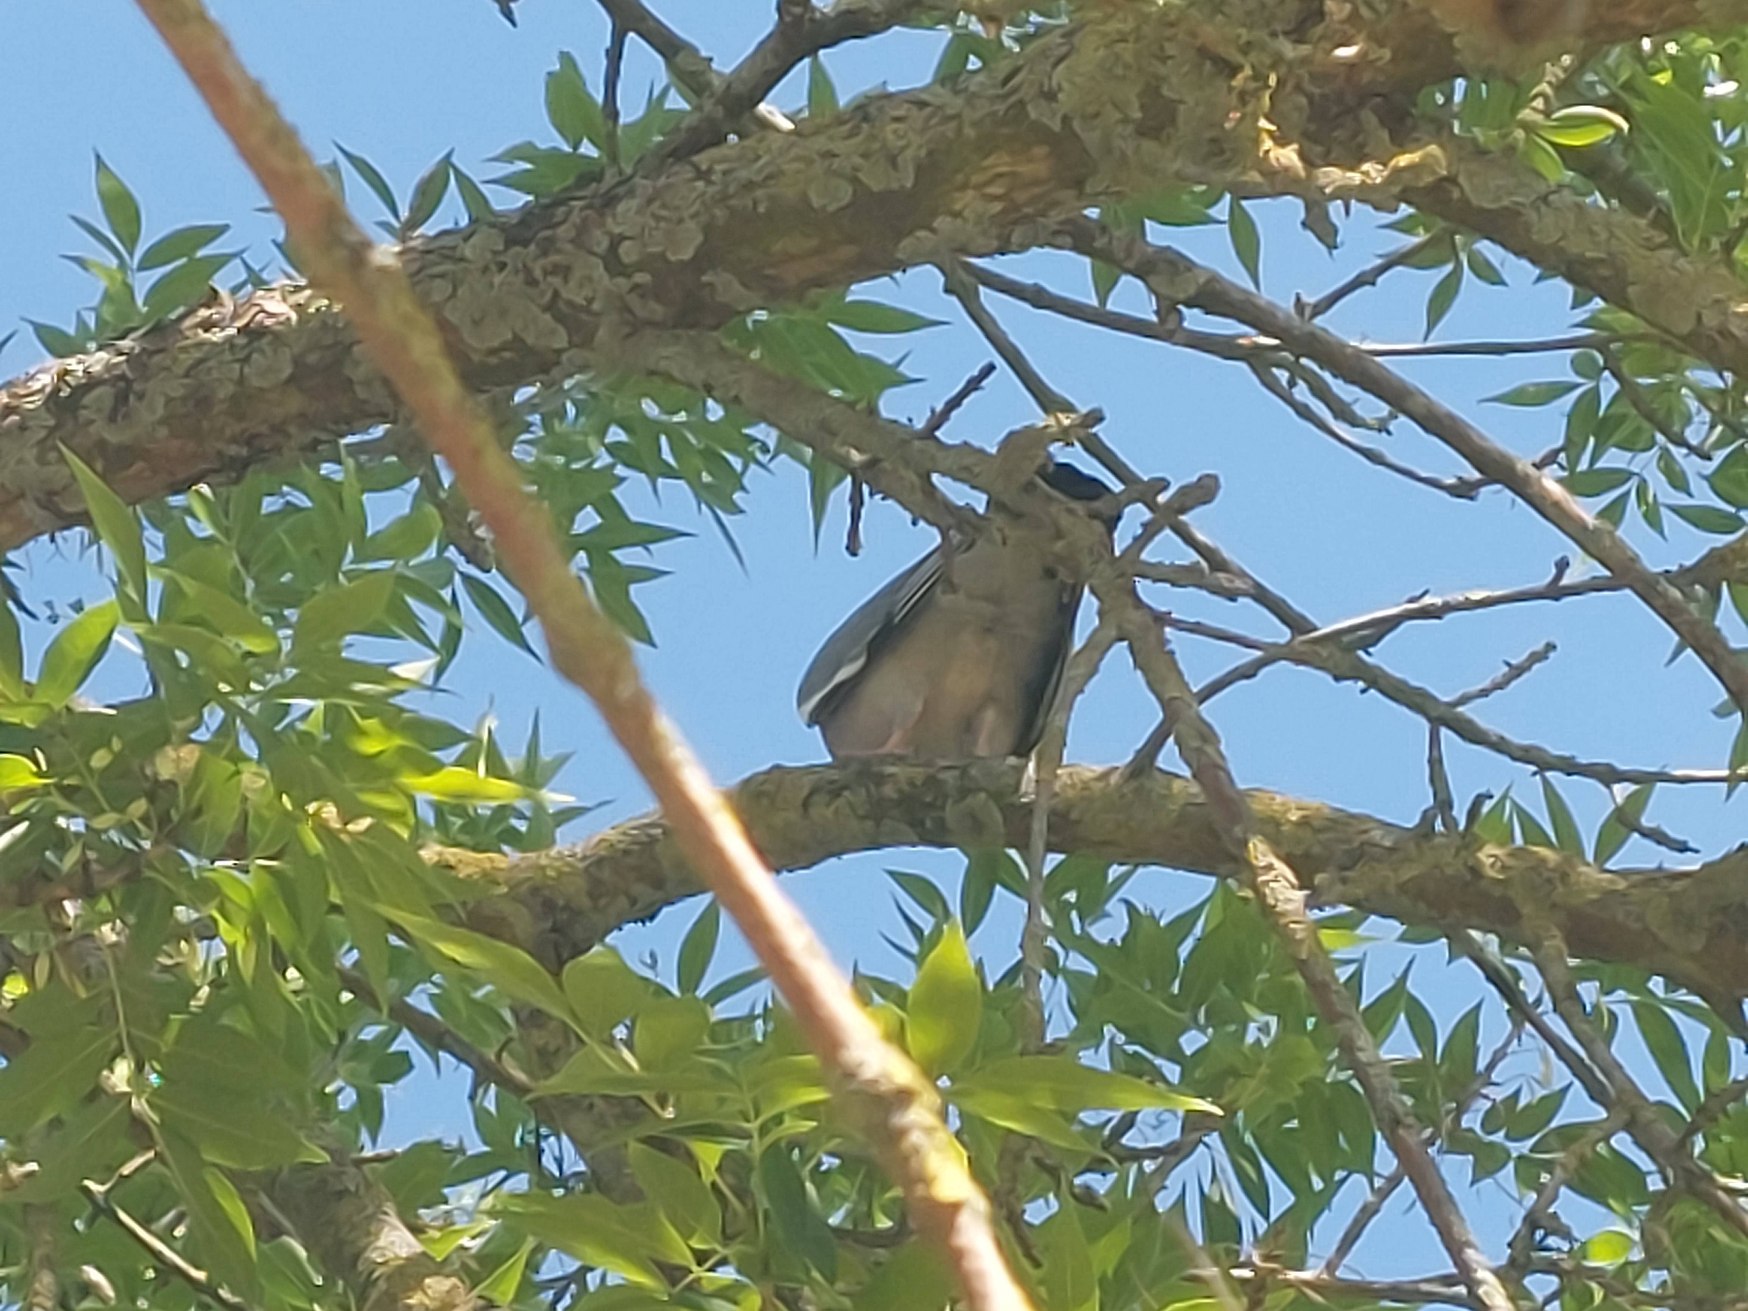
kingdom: Animalia
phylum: Chordata
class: Aves
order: Columbiformes
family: Columbidae
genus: Columba
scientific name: Columba palumbus
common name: Ringdue
